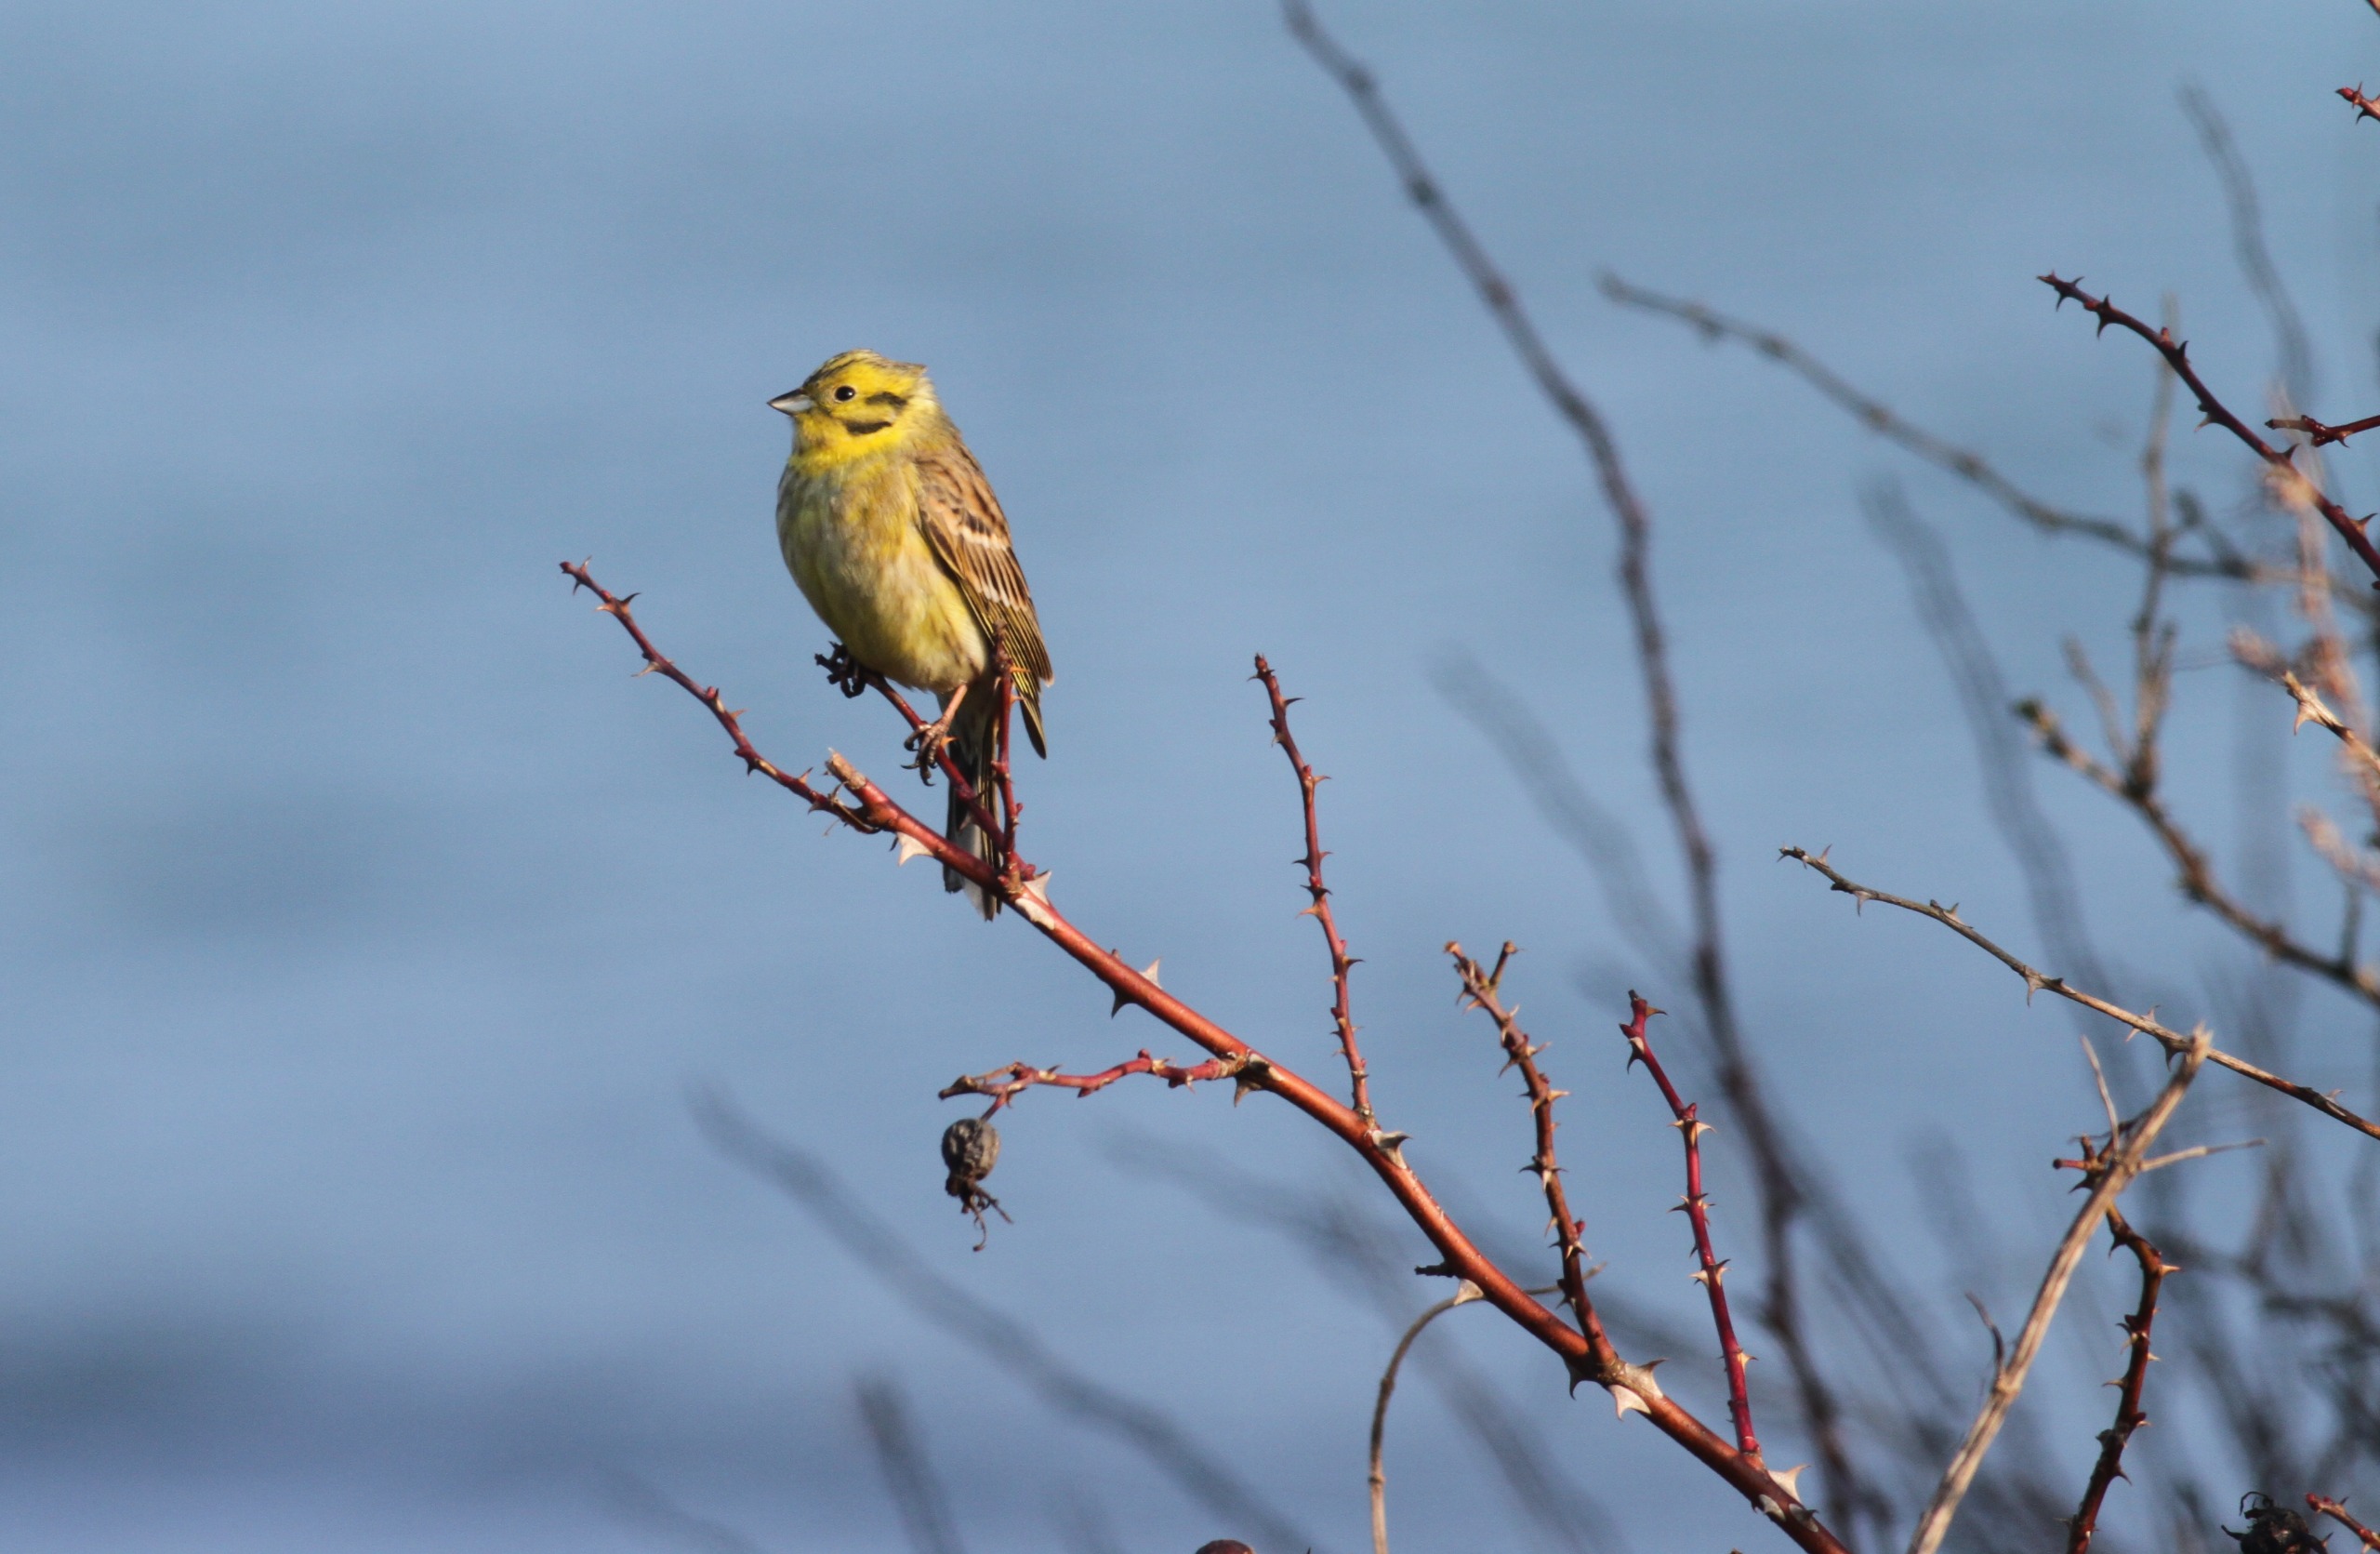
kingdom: Animalia
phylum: Chordata
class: Aves
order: Passeriformes
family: Emberizidae
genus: Emberiza
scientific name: Emberiza citrinella
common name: Gulspurv
